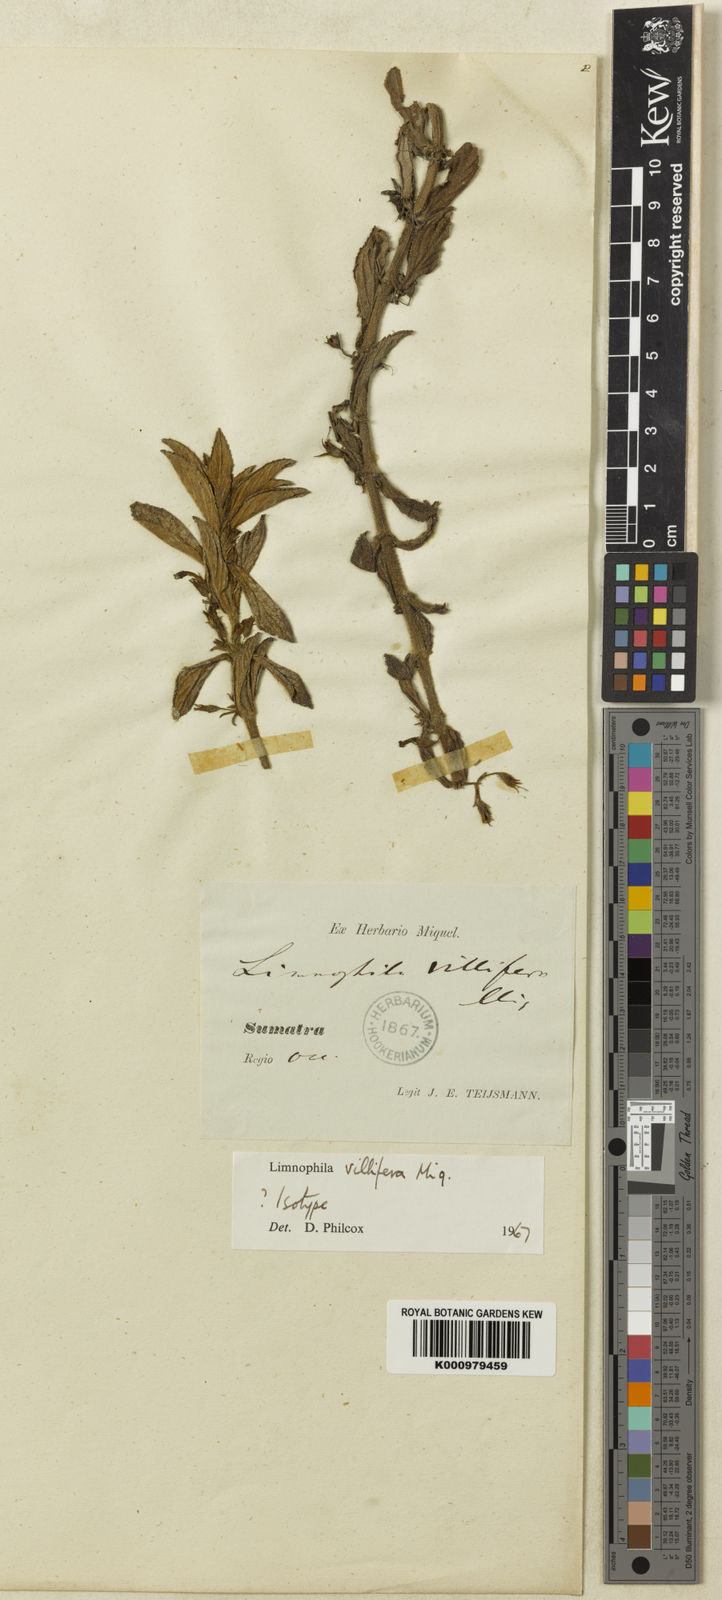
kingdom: Plantae
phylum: Tracheophyta
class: Magnoliopsida
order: Lamiales
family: Plantaginaceae
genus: Limnophila
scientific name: Limnophila villifera
